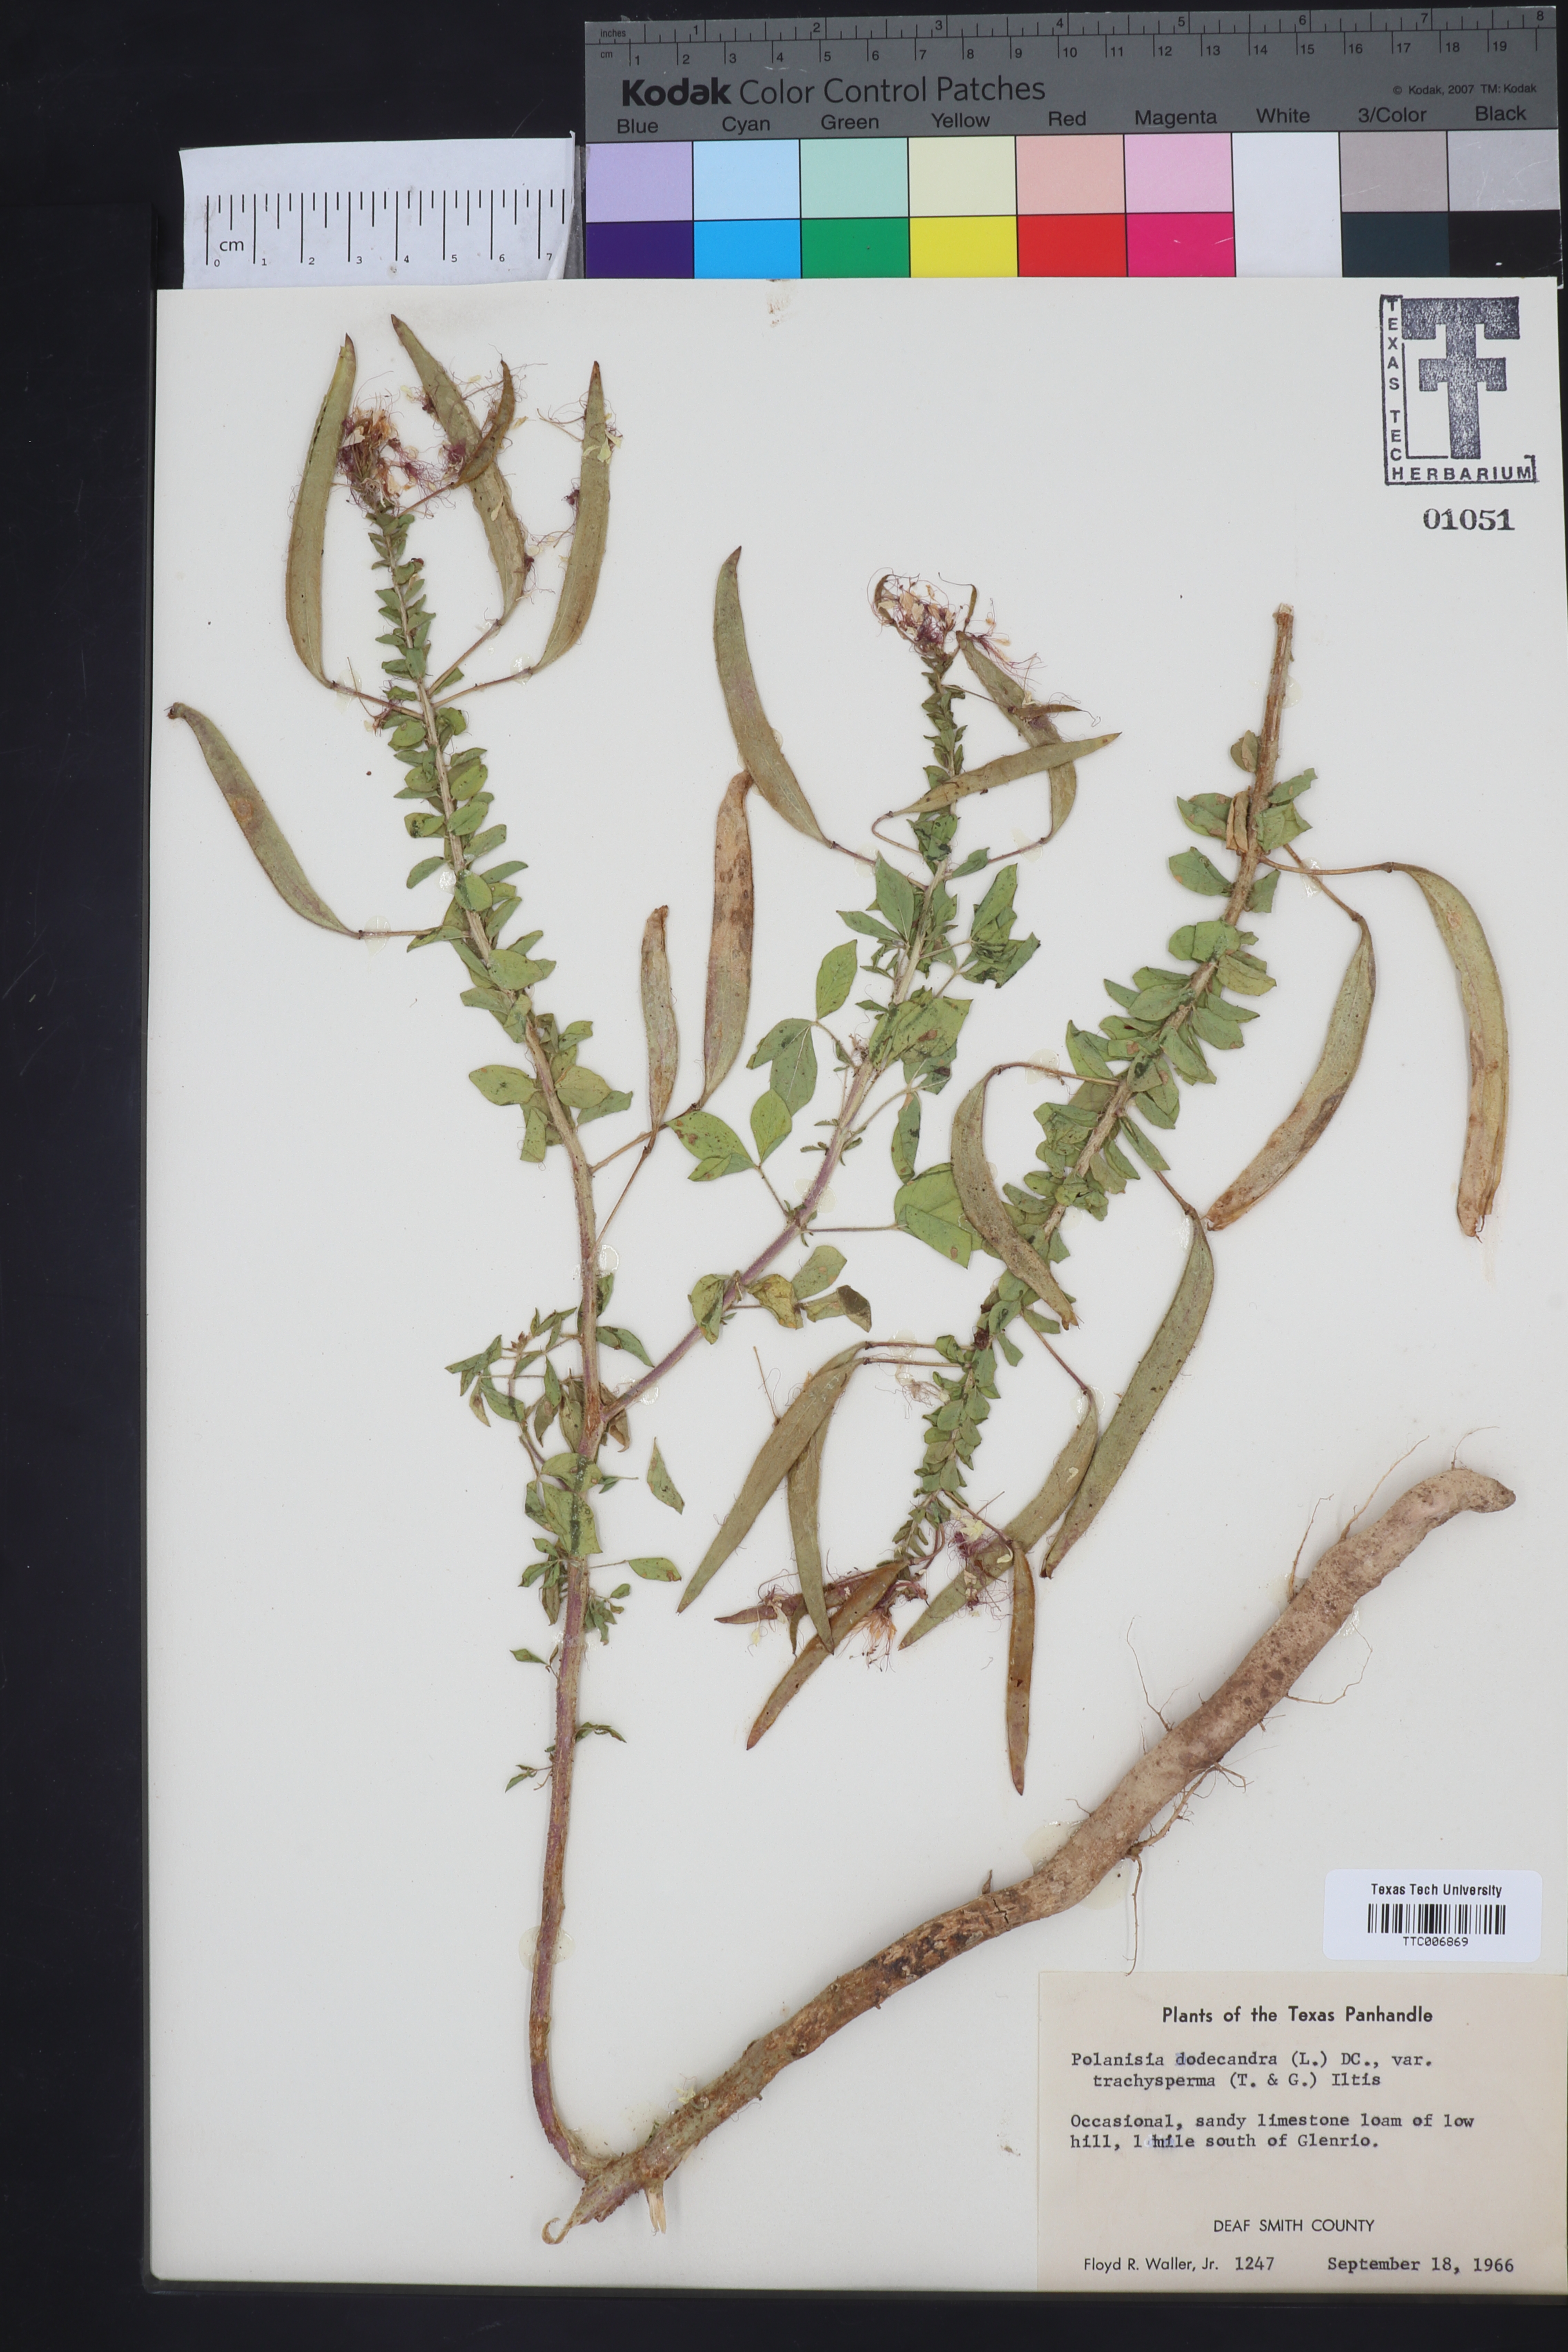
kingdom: Plantae
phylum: Tracheophyta
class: Magnoliopsida
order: Brassicales
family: Cleomaceae
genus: Polanisia
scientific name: Polanisia trachysperma
